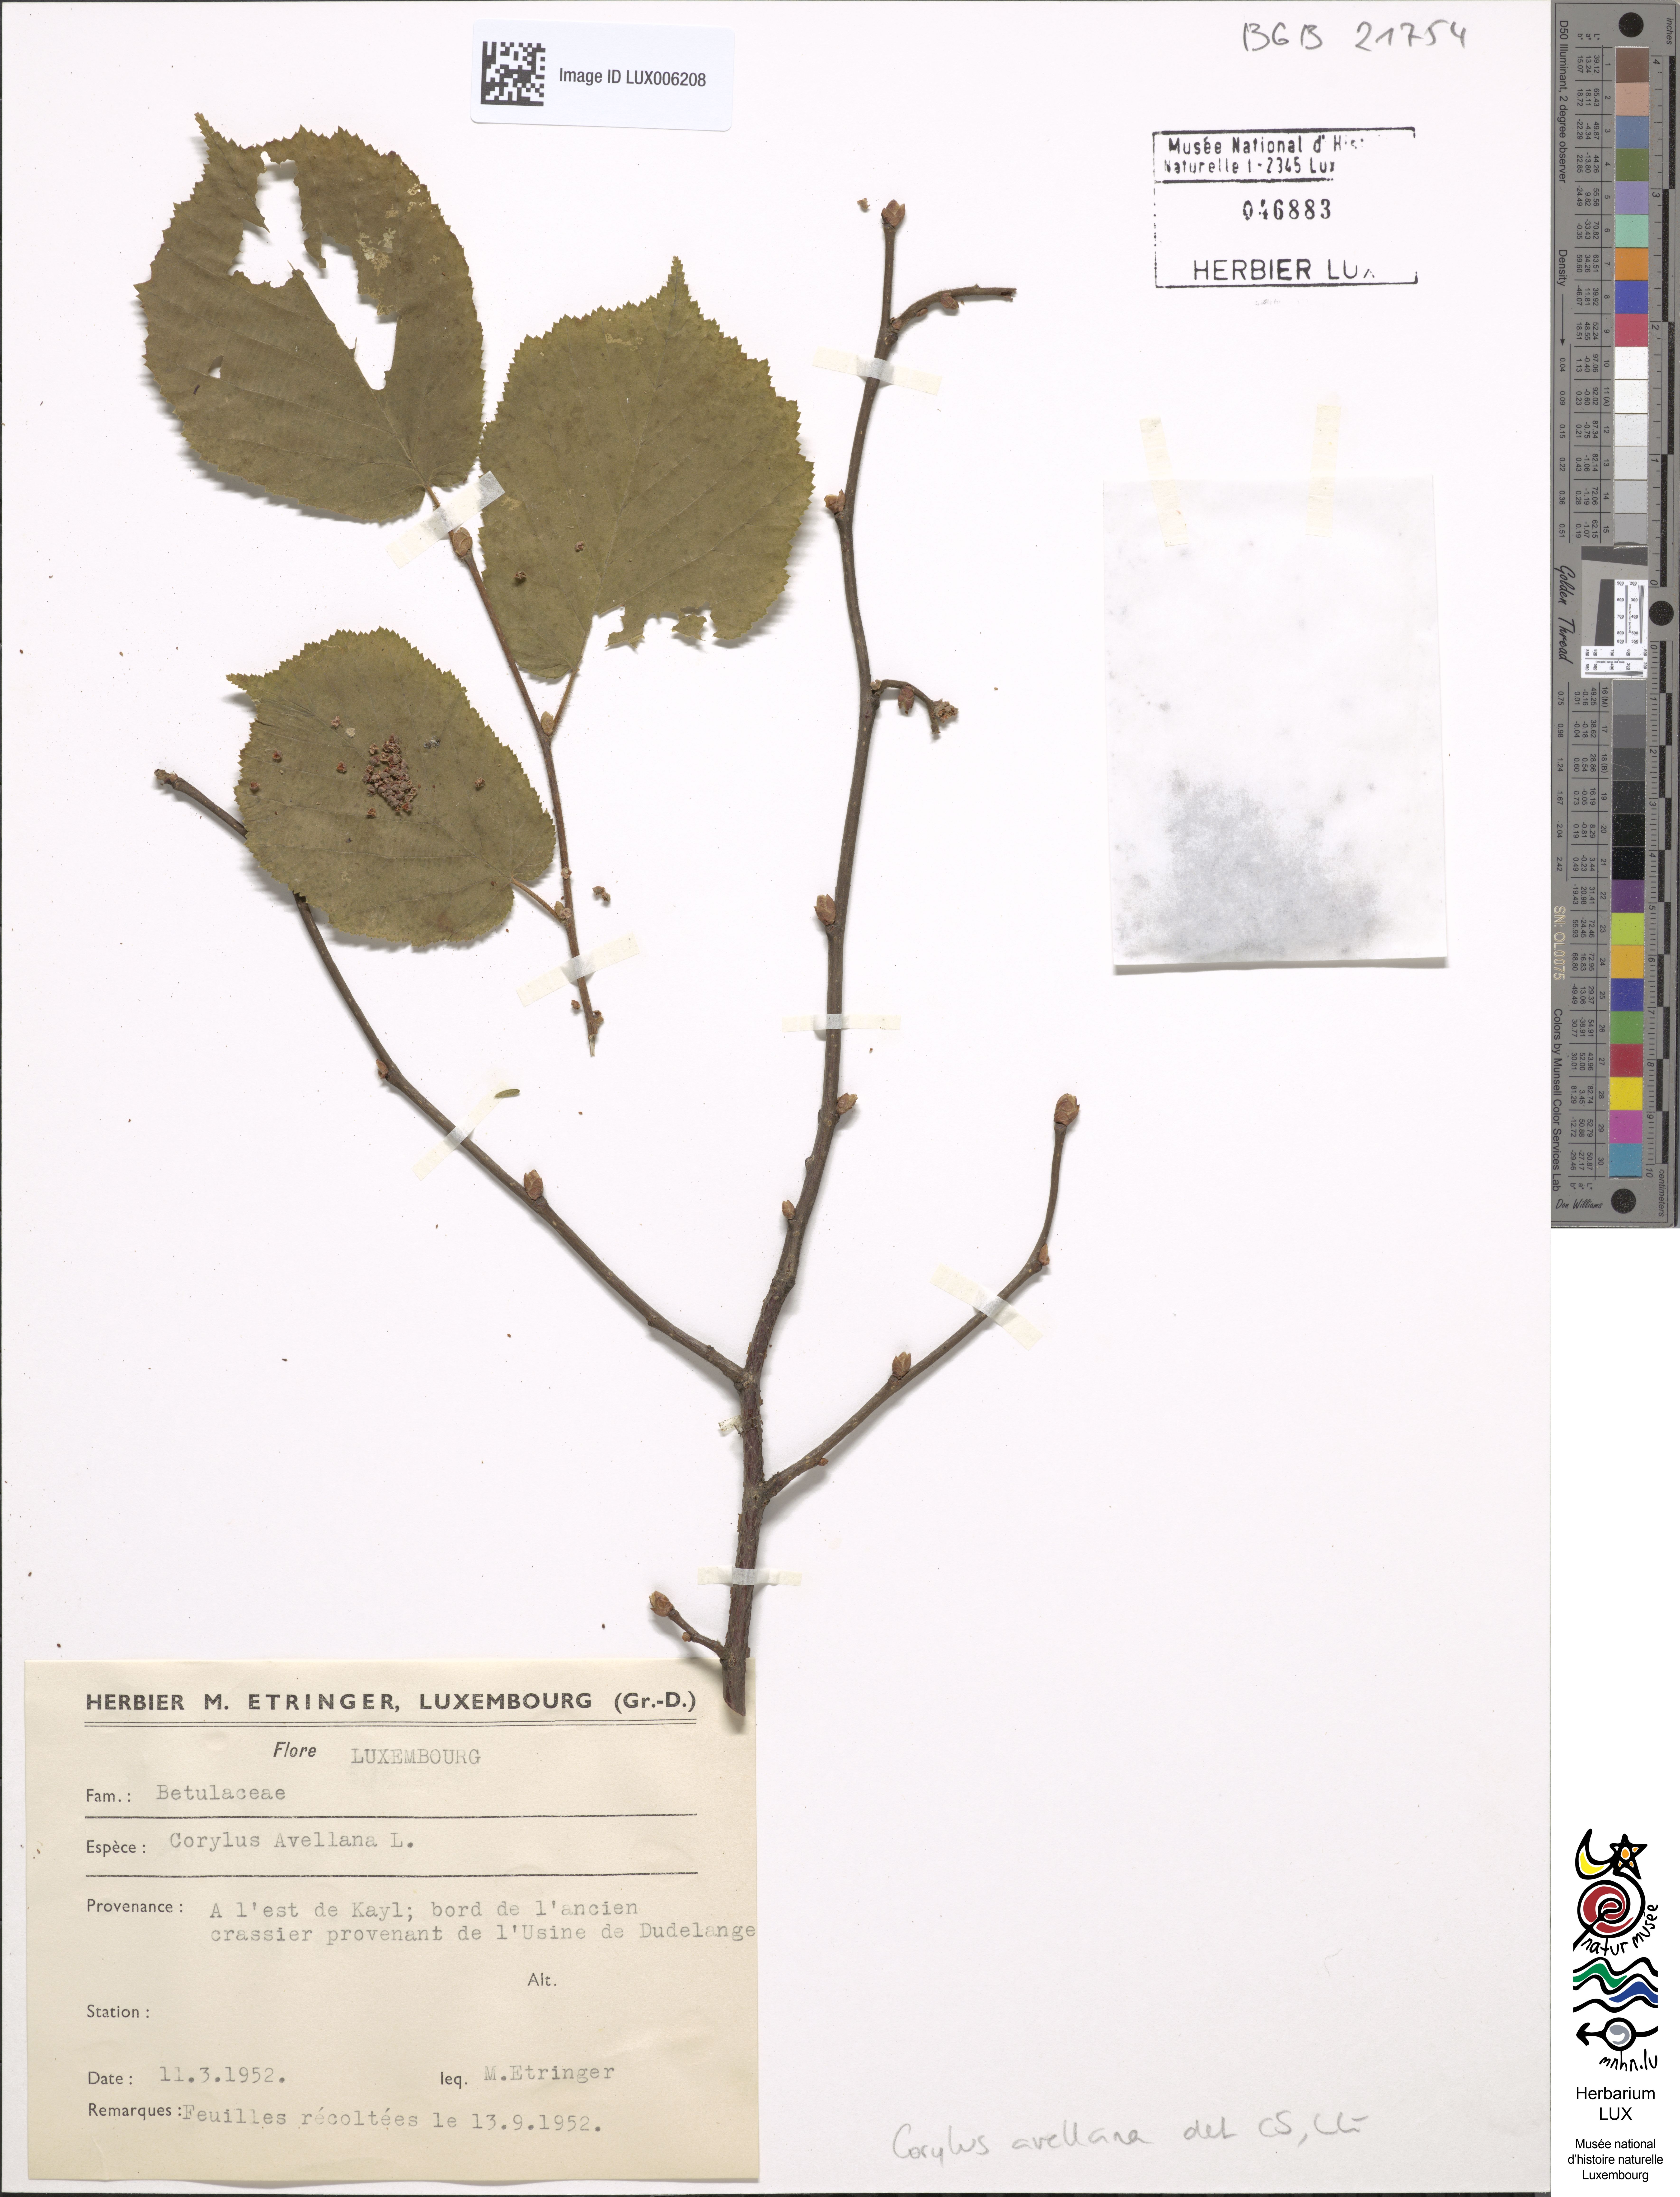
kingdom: Plantae
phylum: Tracheophyta
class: Magnoliopsida
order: Fagales
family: Betulaceae
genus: Corylus
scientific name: Corylus avellana
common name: European hazel
